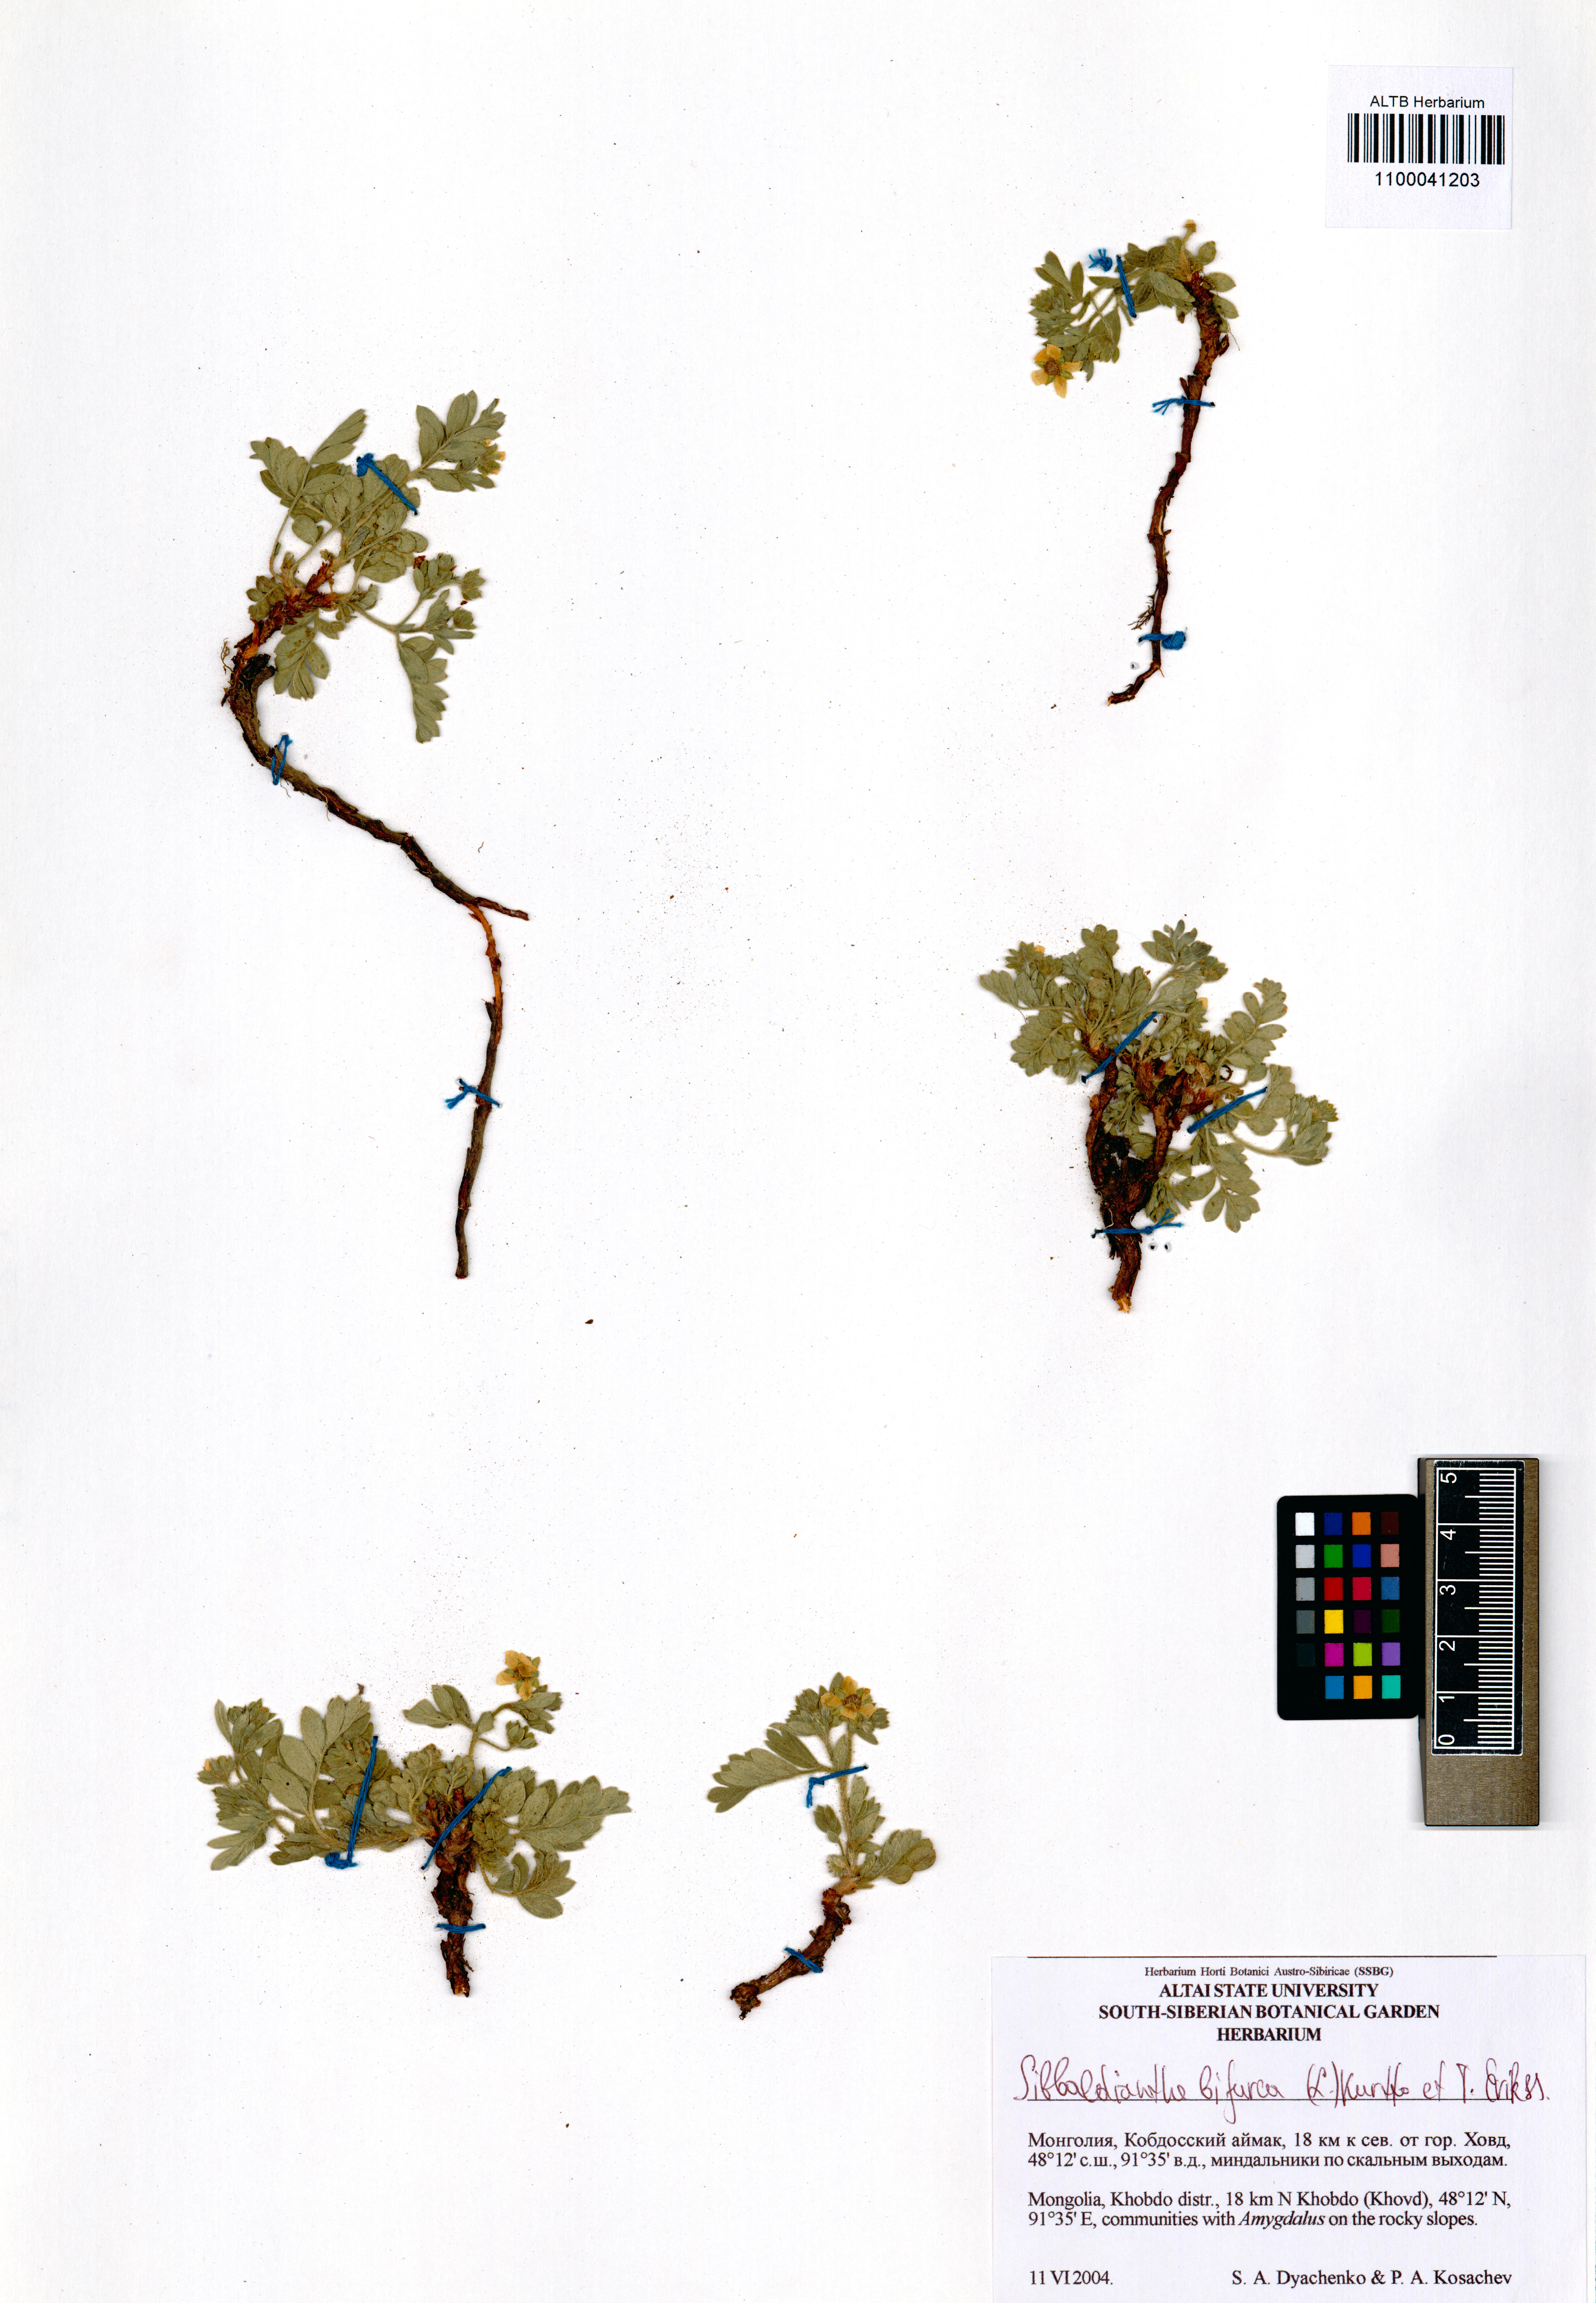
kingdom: Plantae
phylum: Tracheophyta
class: Magnoliopsida
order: Rosales
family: Rosaceae
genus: Sibbaldianthe
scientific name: Sibbaldianthe bifurca
